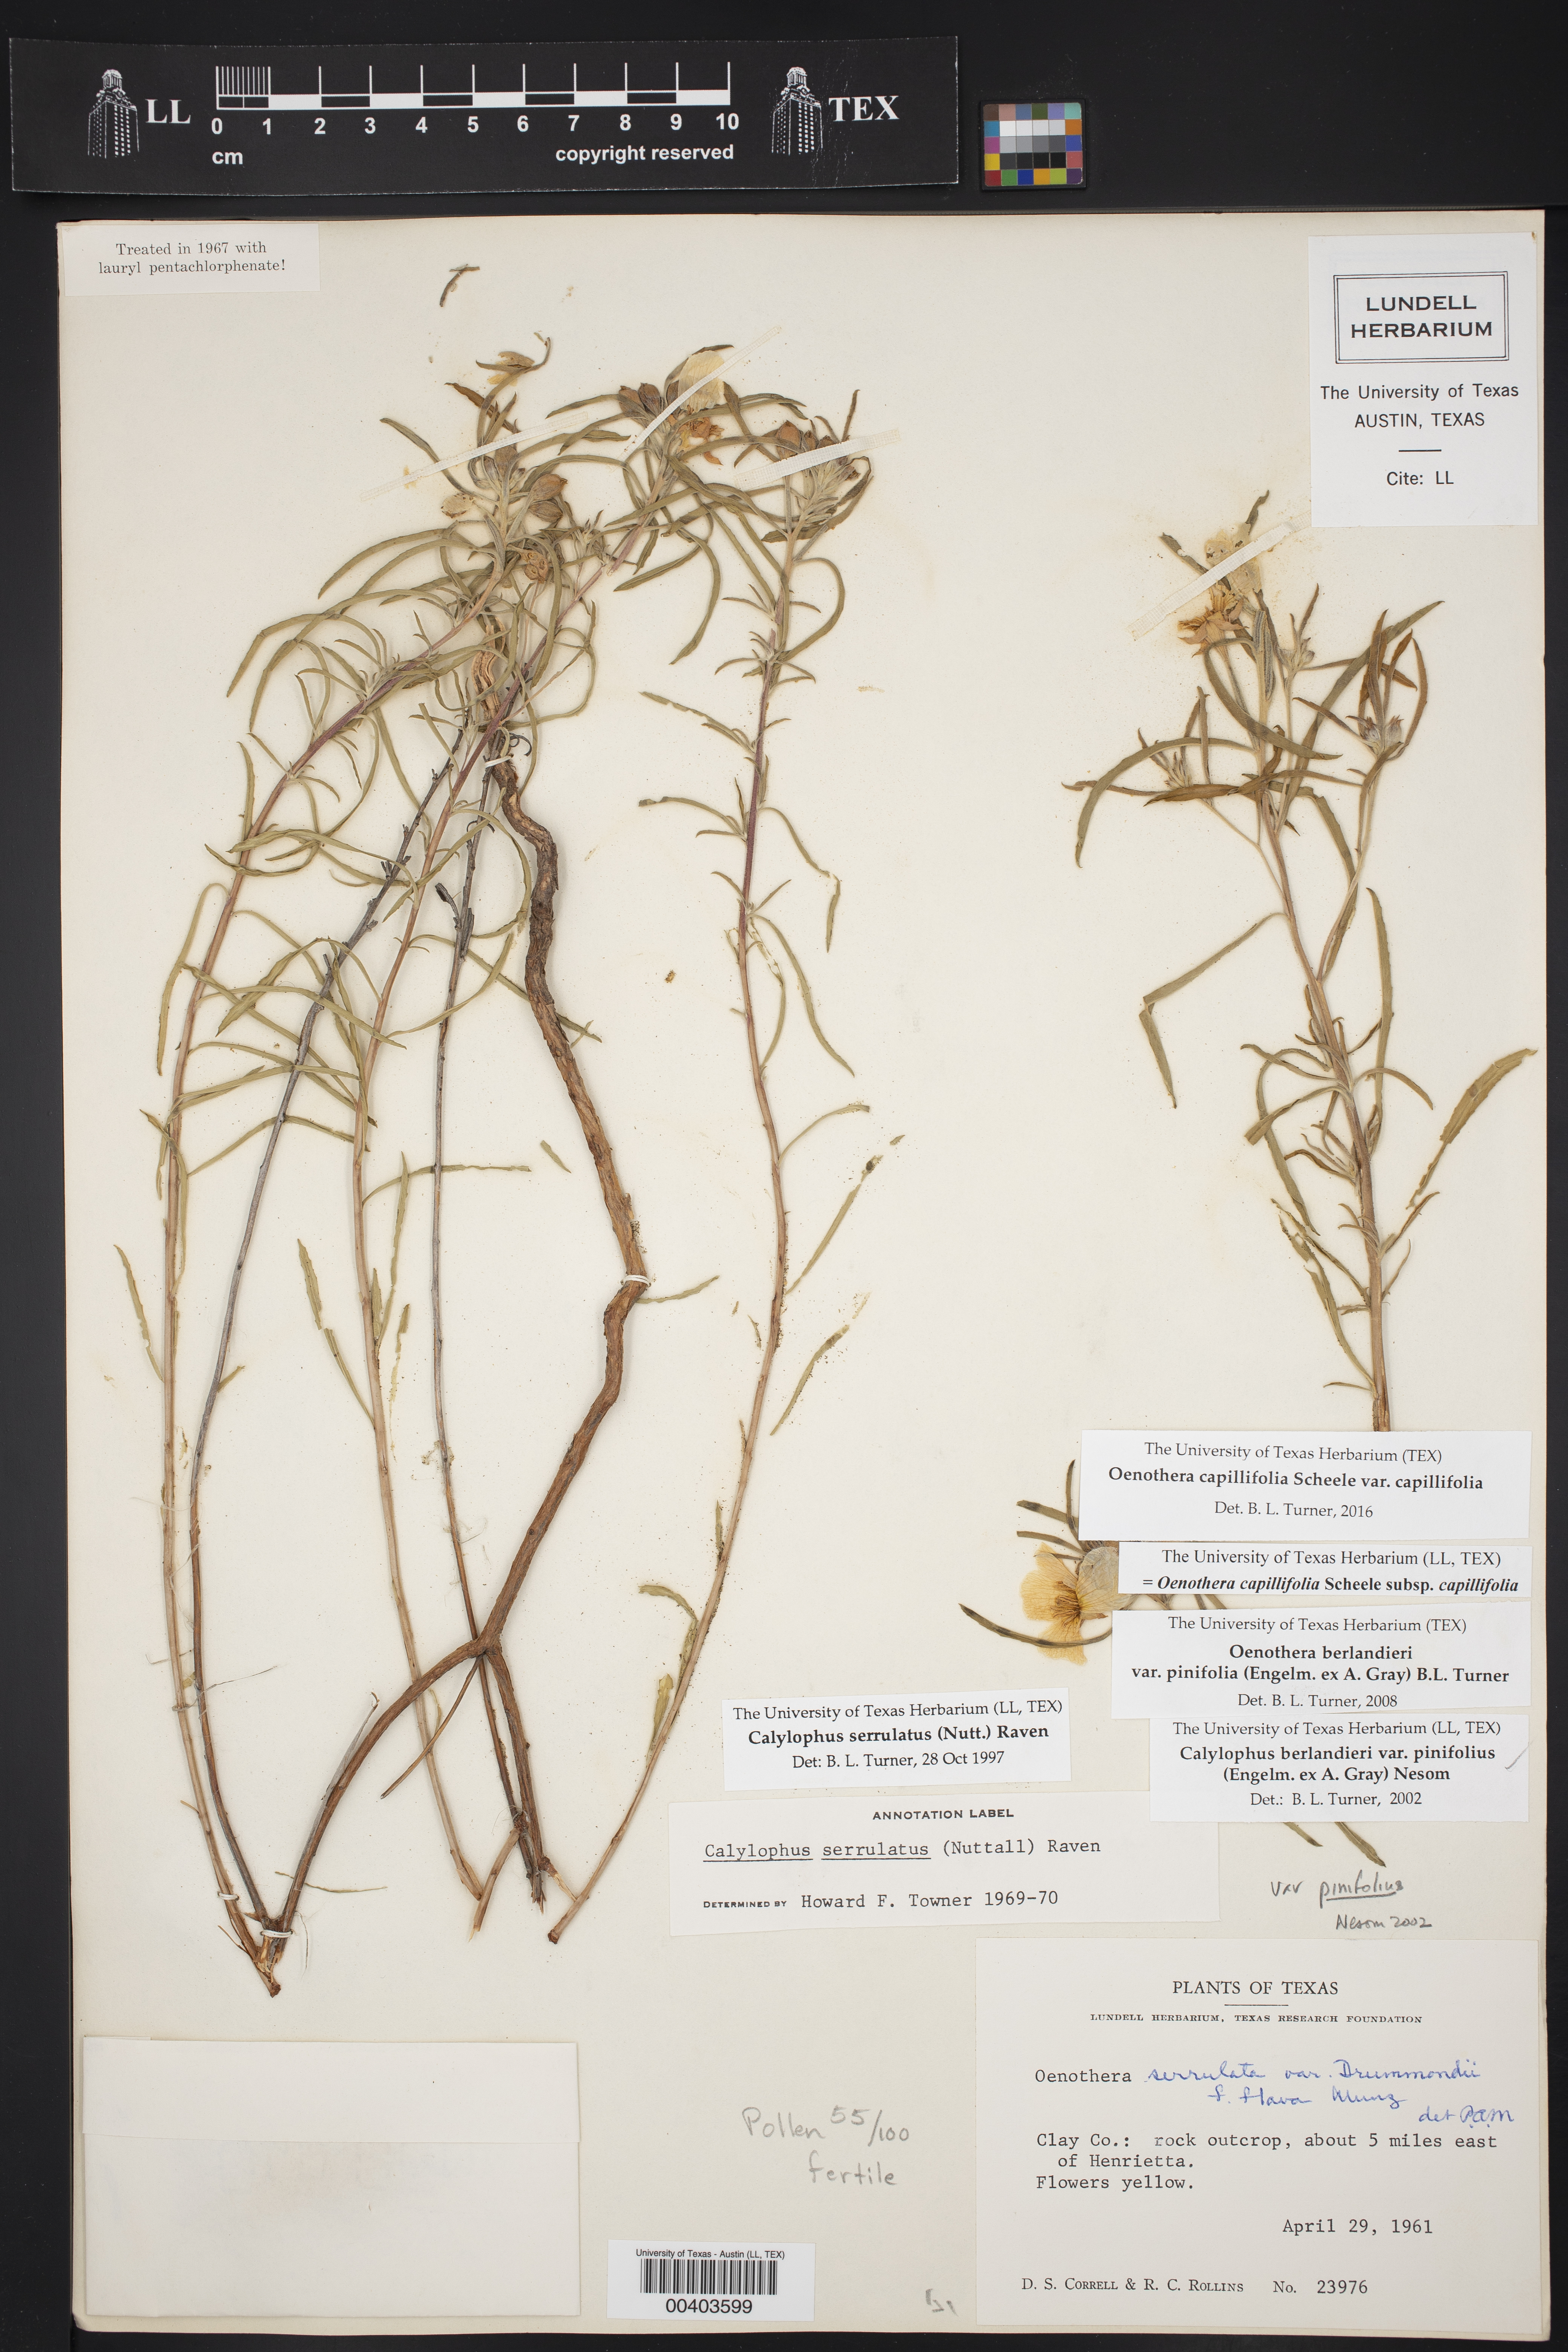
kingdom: Plantae
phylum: Tracheophyta
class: Magnoliopsida
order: Myrtales
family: Onagraceae
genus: Oenothera
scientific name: Oenothera capillifolia
